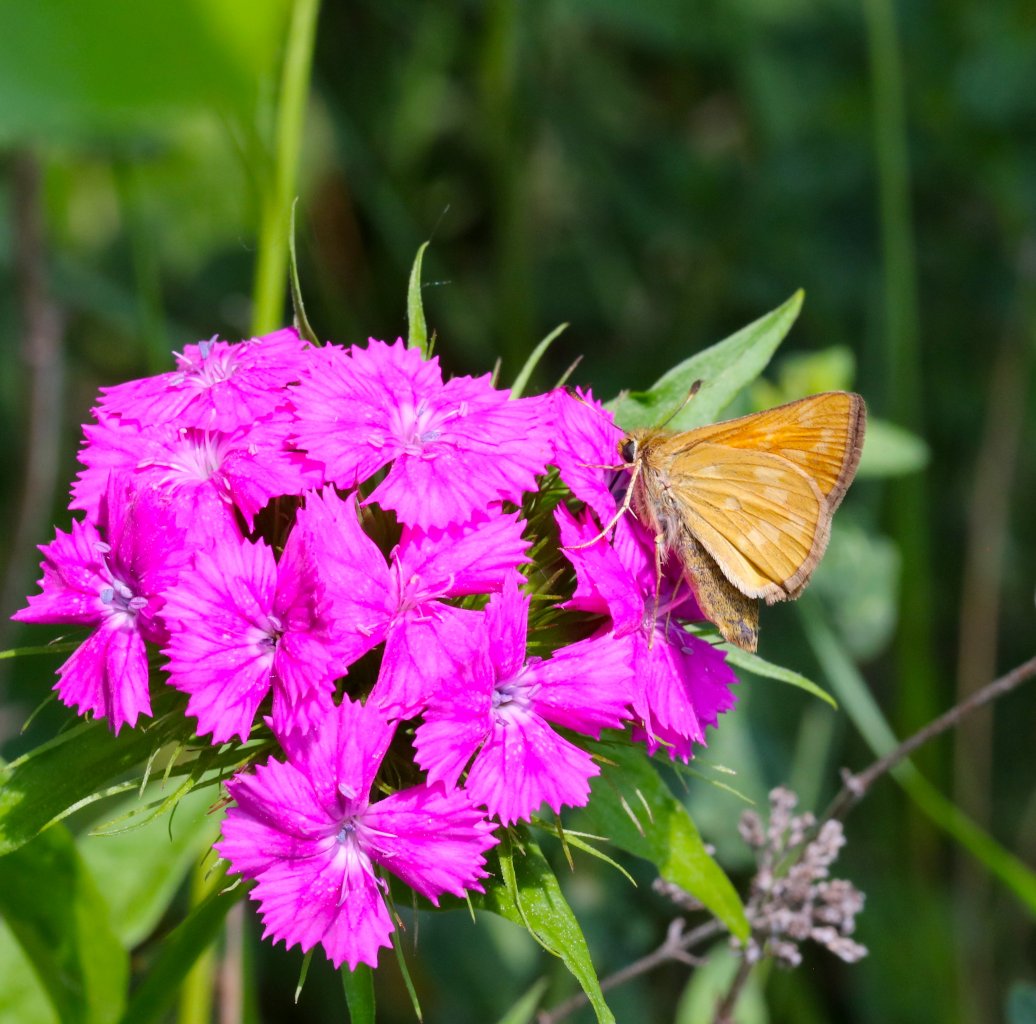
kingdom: Animalia
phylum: Arthropoda
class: Insecta
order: Lepidoptera
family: Hesperiidae
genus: Hesperia
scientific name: Hesperia sassacus
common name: Sassacus Skipper
